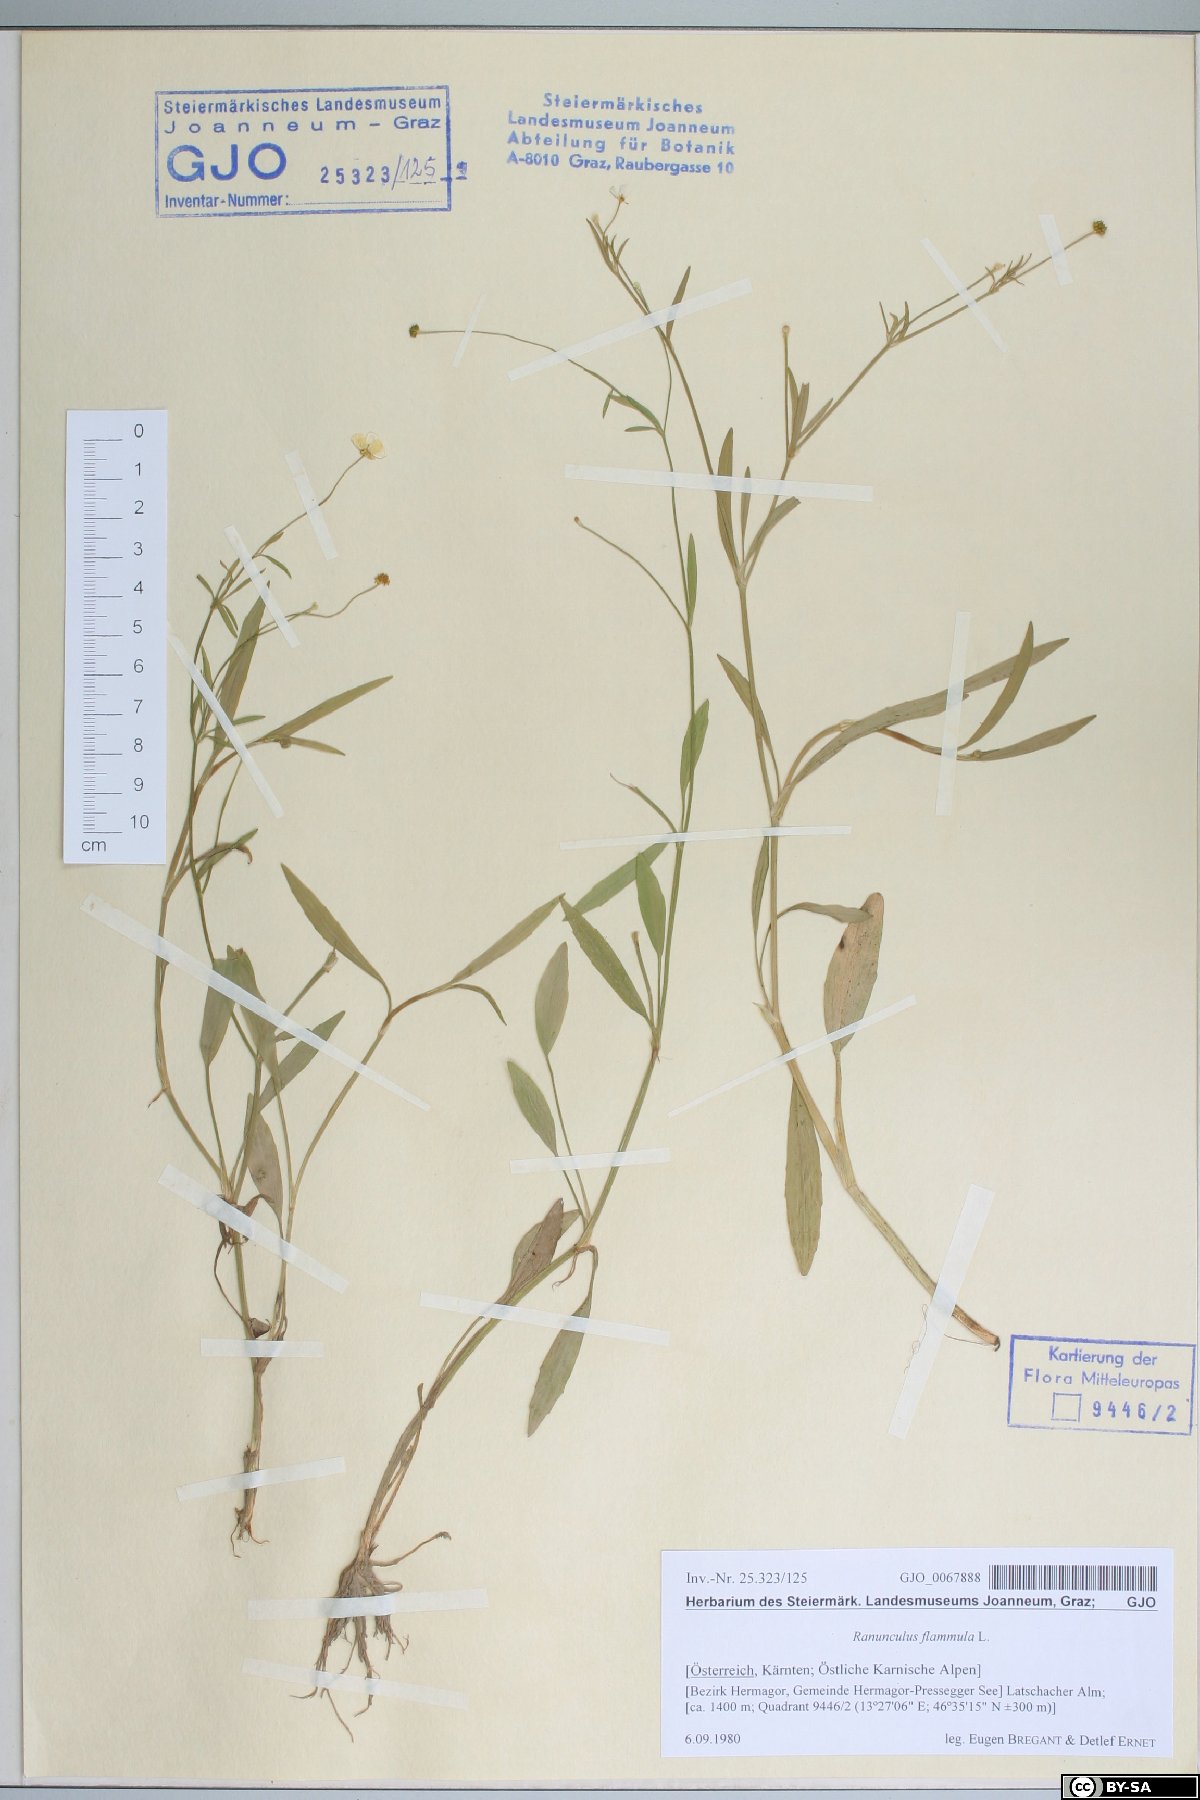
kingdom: Plantae
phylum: Tracheophyta
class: Magnoliopsida
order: Ranunculales
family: Ranunculaceae
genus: Ranunculus
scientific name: Ranunculus flammula
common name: Lesser spearwort
